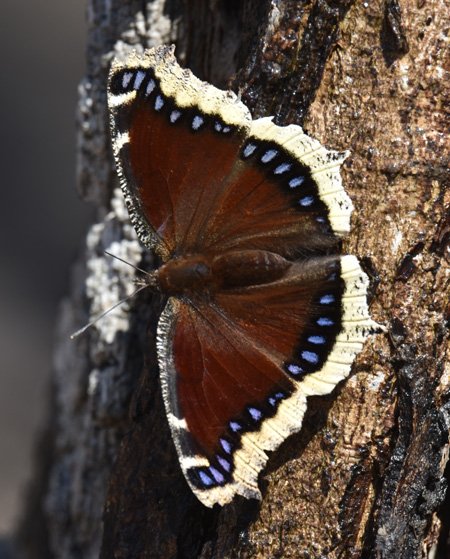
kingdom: Animalia
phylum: Arthropoda
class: Insecta
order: Lepidoptera
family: Nymphalidae
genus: Nymphalis
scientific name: Nymphalis antiopa
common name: Mourning Cloak
